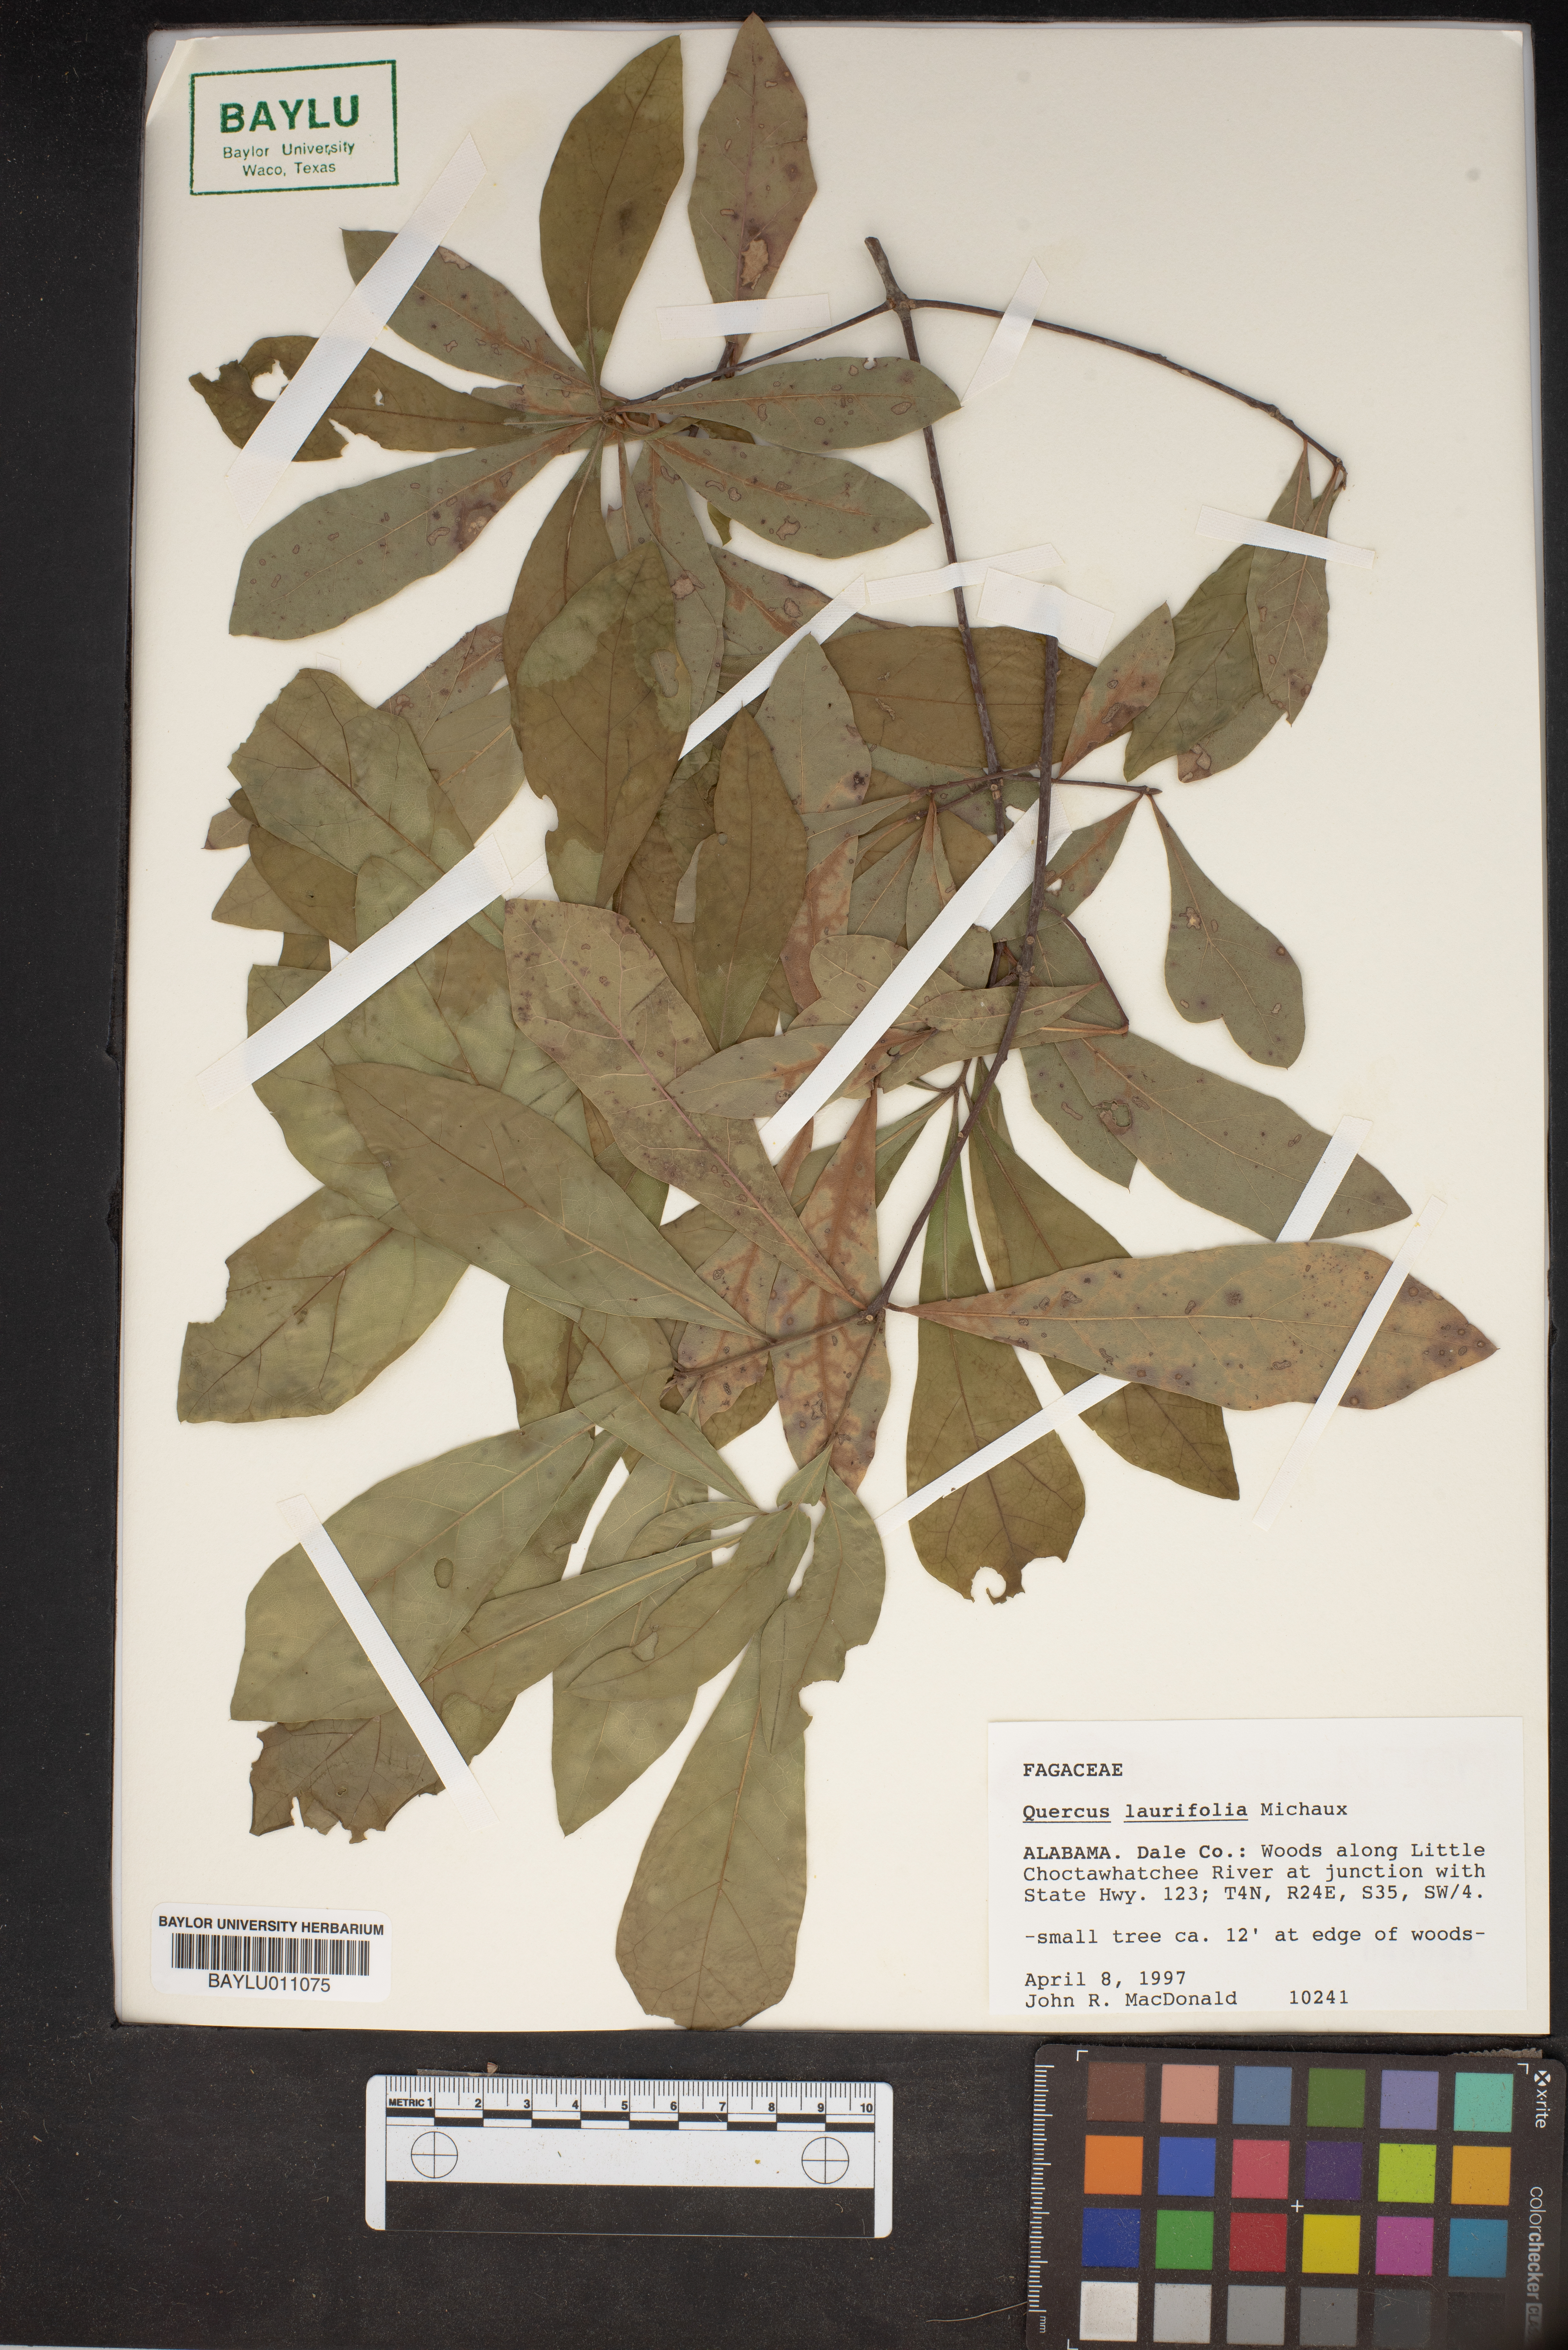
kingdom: Plantae
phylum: Tracheophyta
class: Magnoliopsida
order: Fagales
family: Fagaceae
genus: Quercus
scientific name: Quercus laurifolia
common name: Swamp laurel oak
